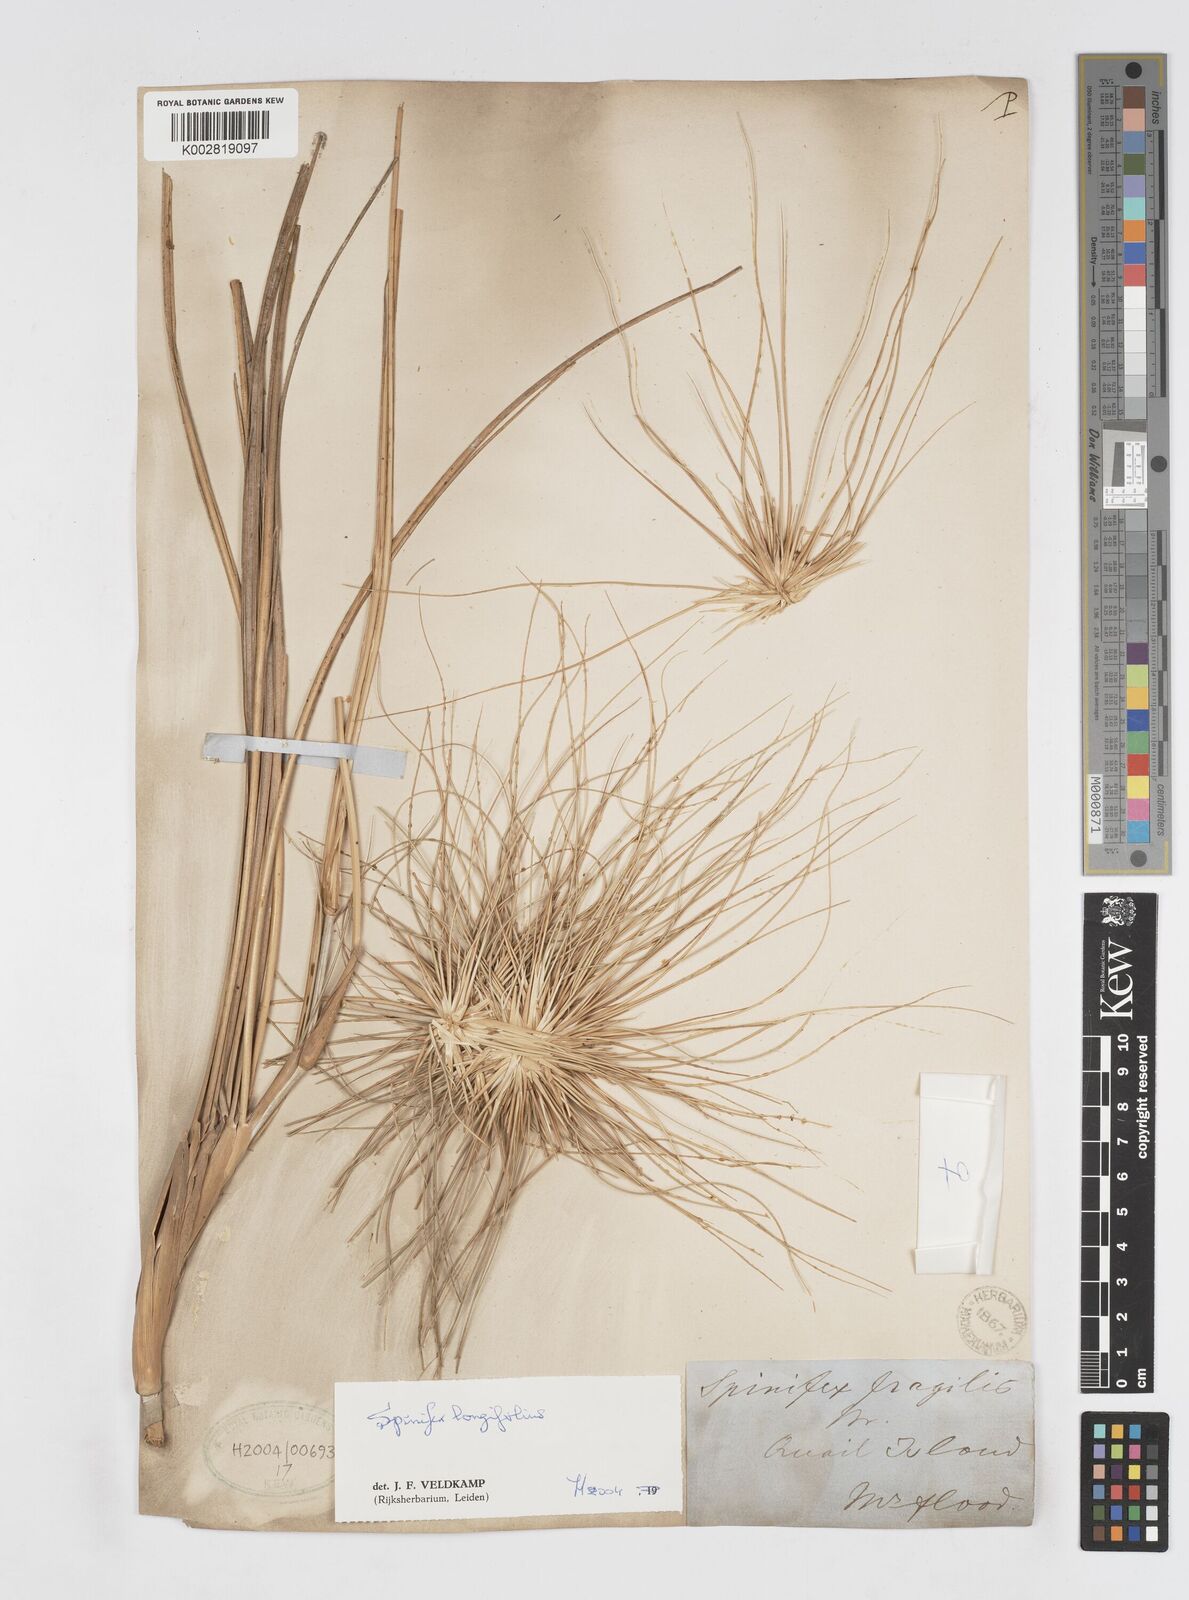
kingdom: Plantae
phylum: Tracheophyta
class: Liliopsida
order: Poales
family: Poaceae
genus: Spinifex
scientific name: Spinifex longifolius
